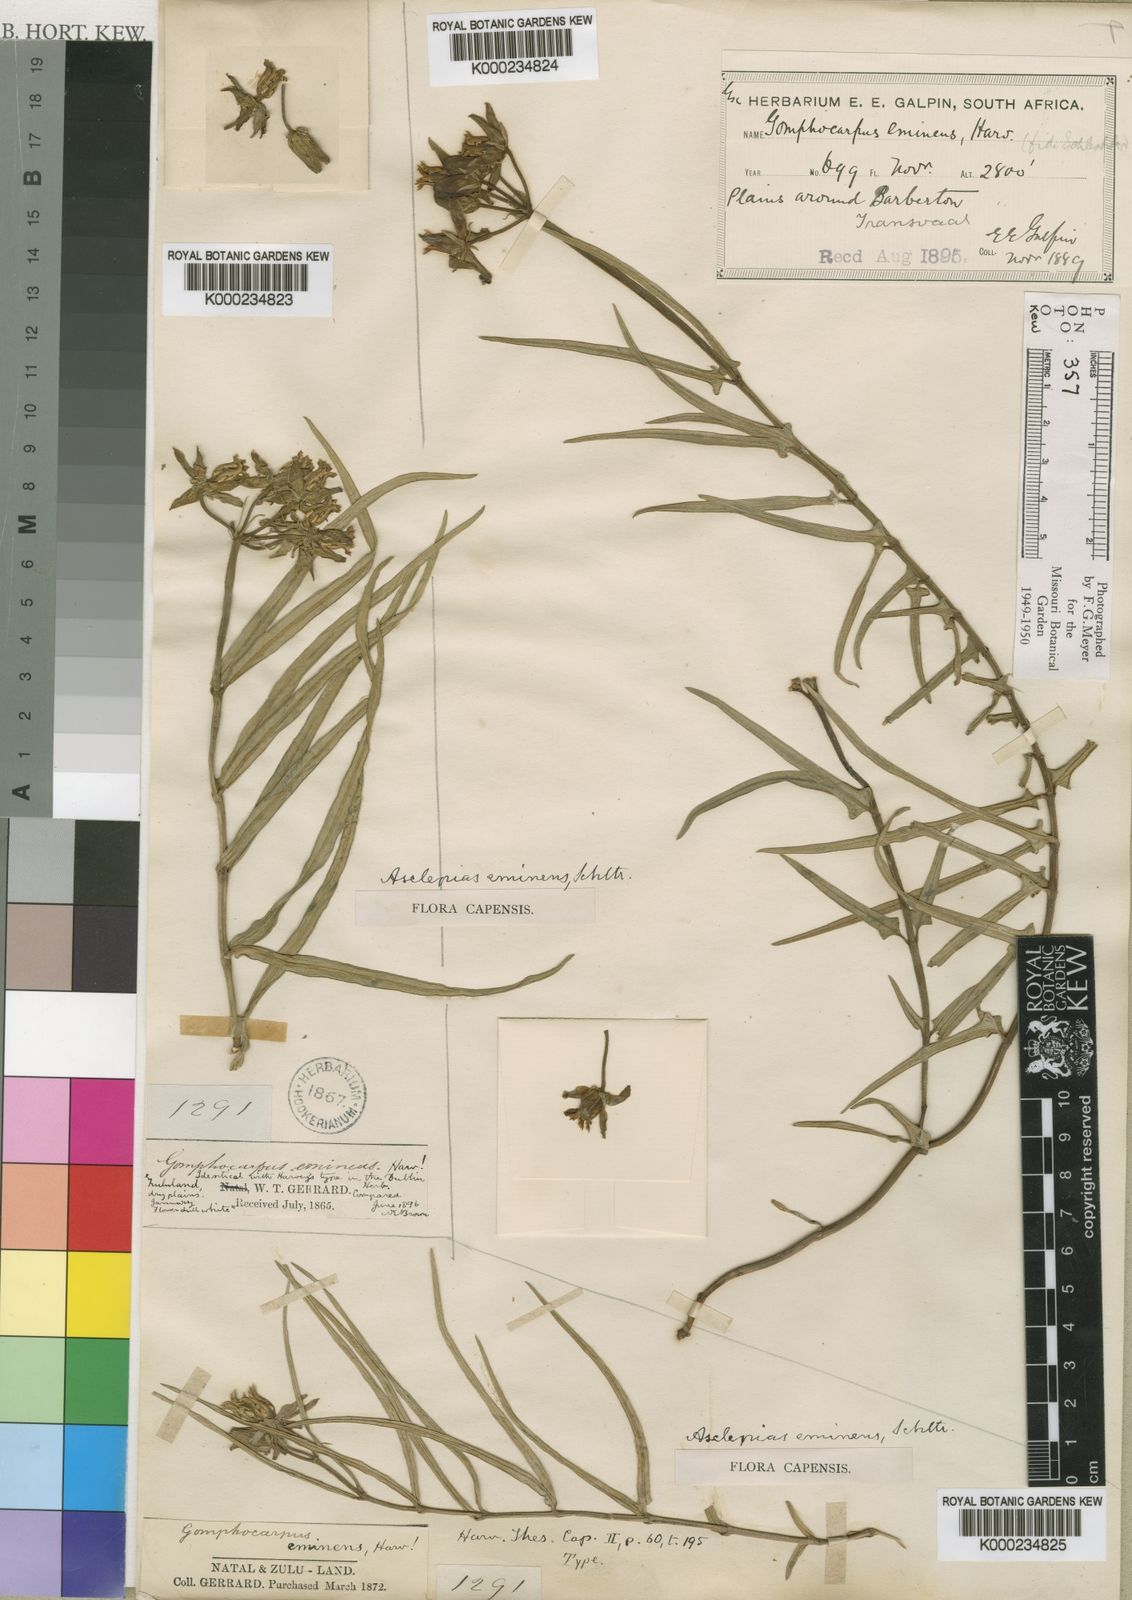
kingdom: Plantae
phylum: Tracheophyta
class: Magnoliopsida
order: Gentianales
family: Apocynaceae
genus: Asclepias
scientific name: Asclepias eminens
